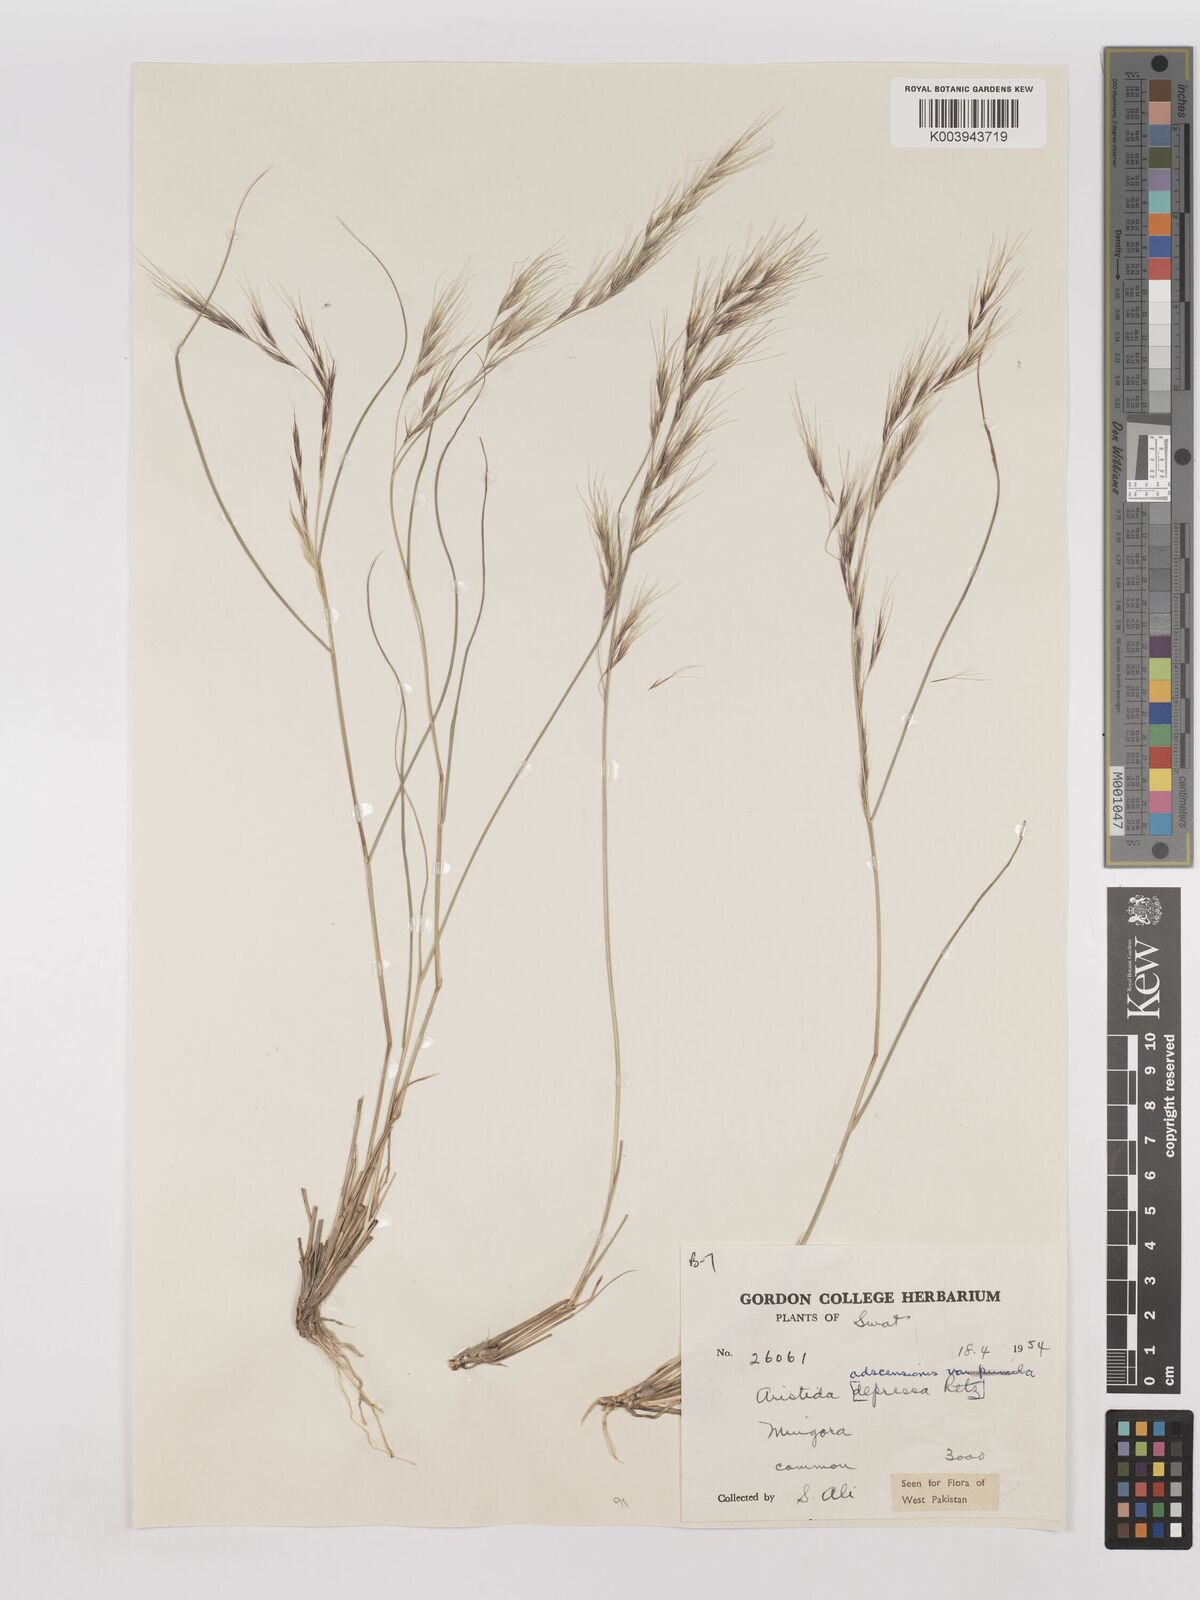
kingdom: Plantae
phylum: Tracheophyta
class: Liliopsida
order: Poales
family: Poaceae
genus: Aristida
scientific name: Aristida adscensionis
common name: Sixweeks threeawn
